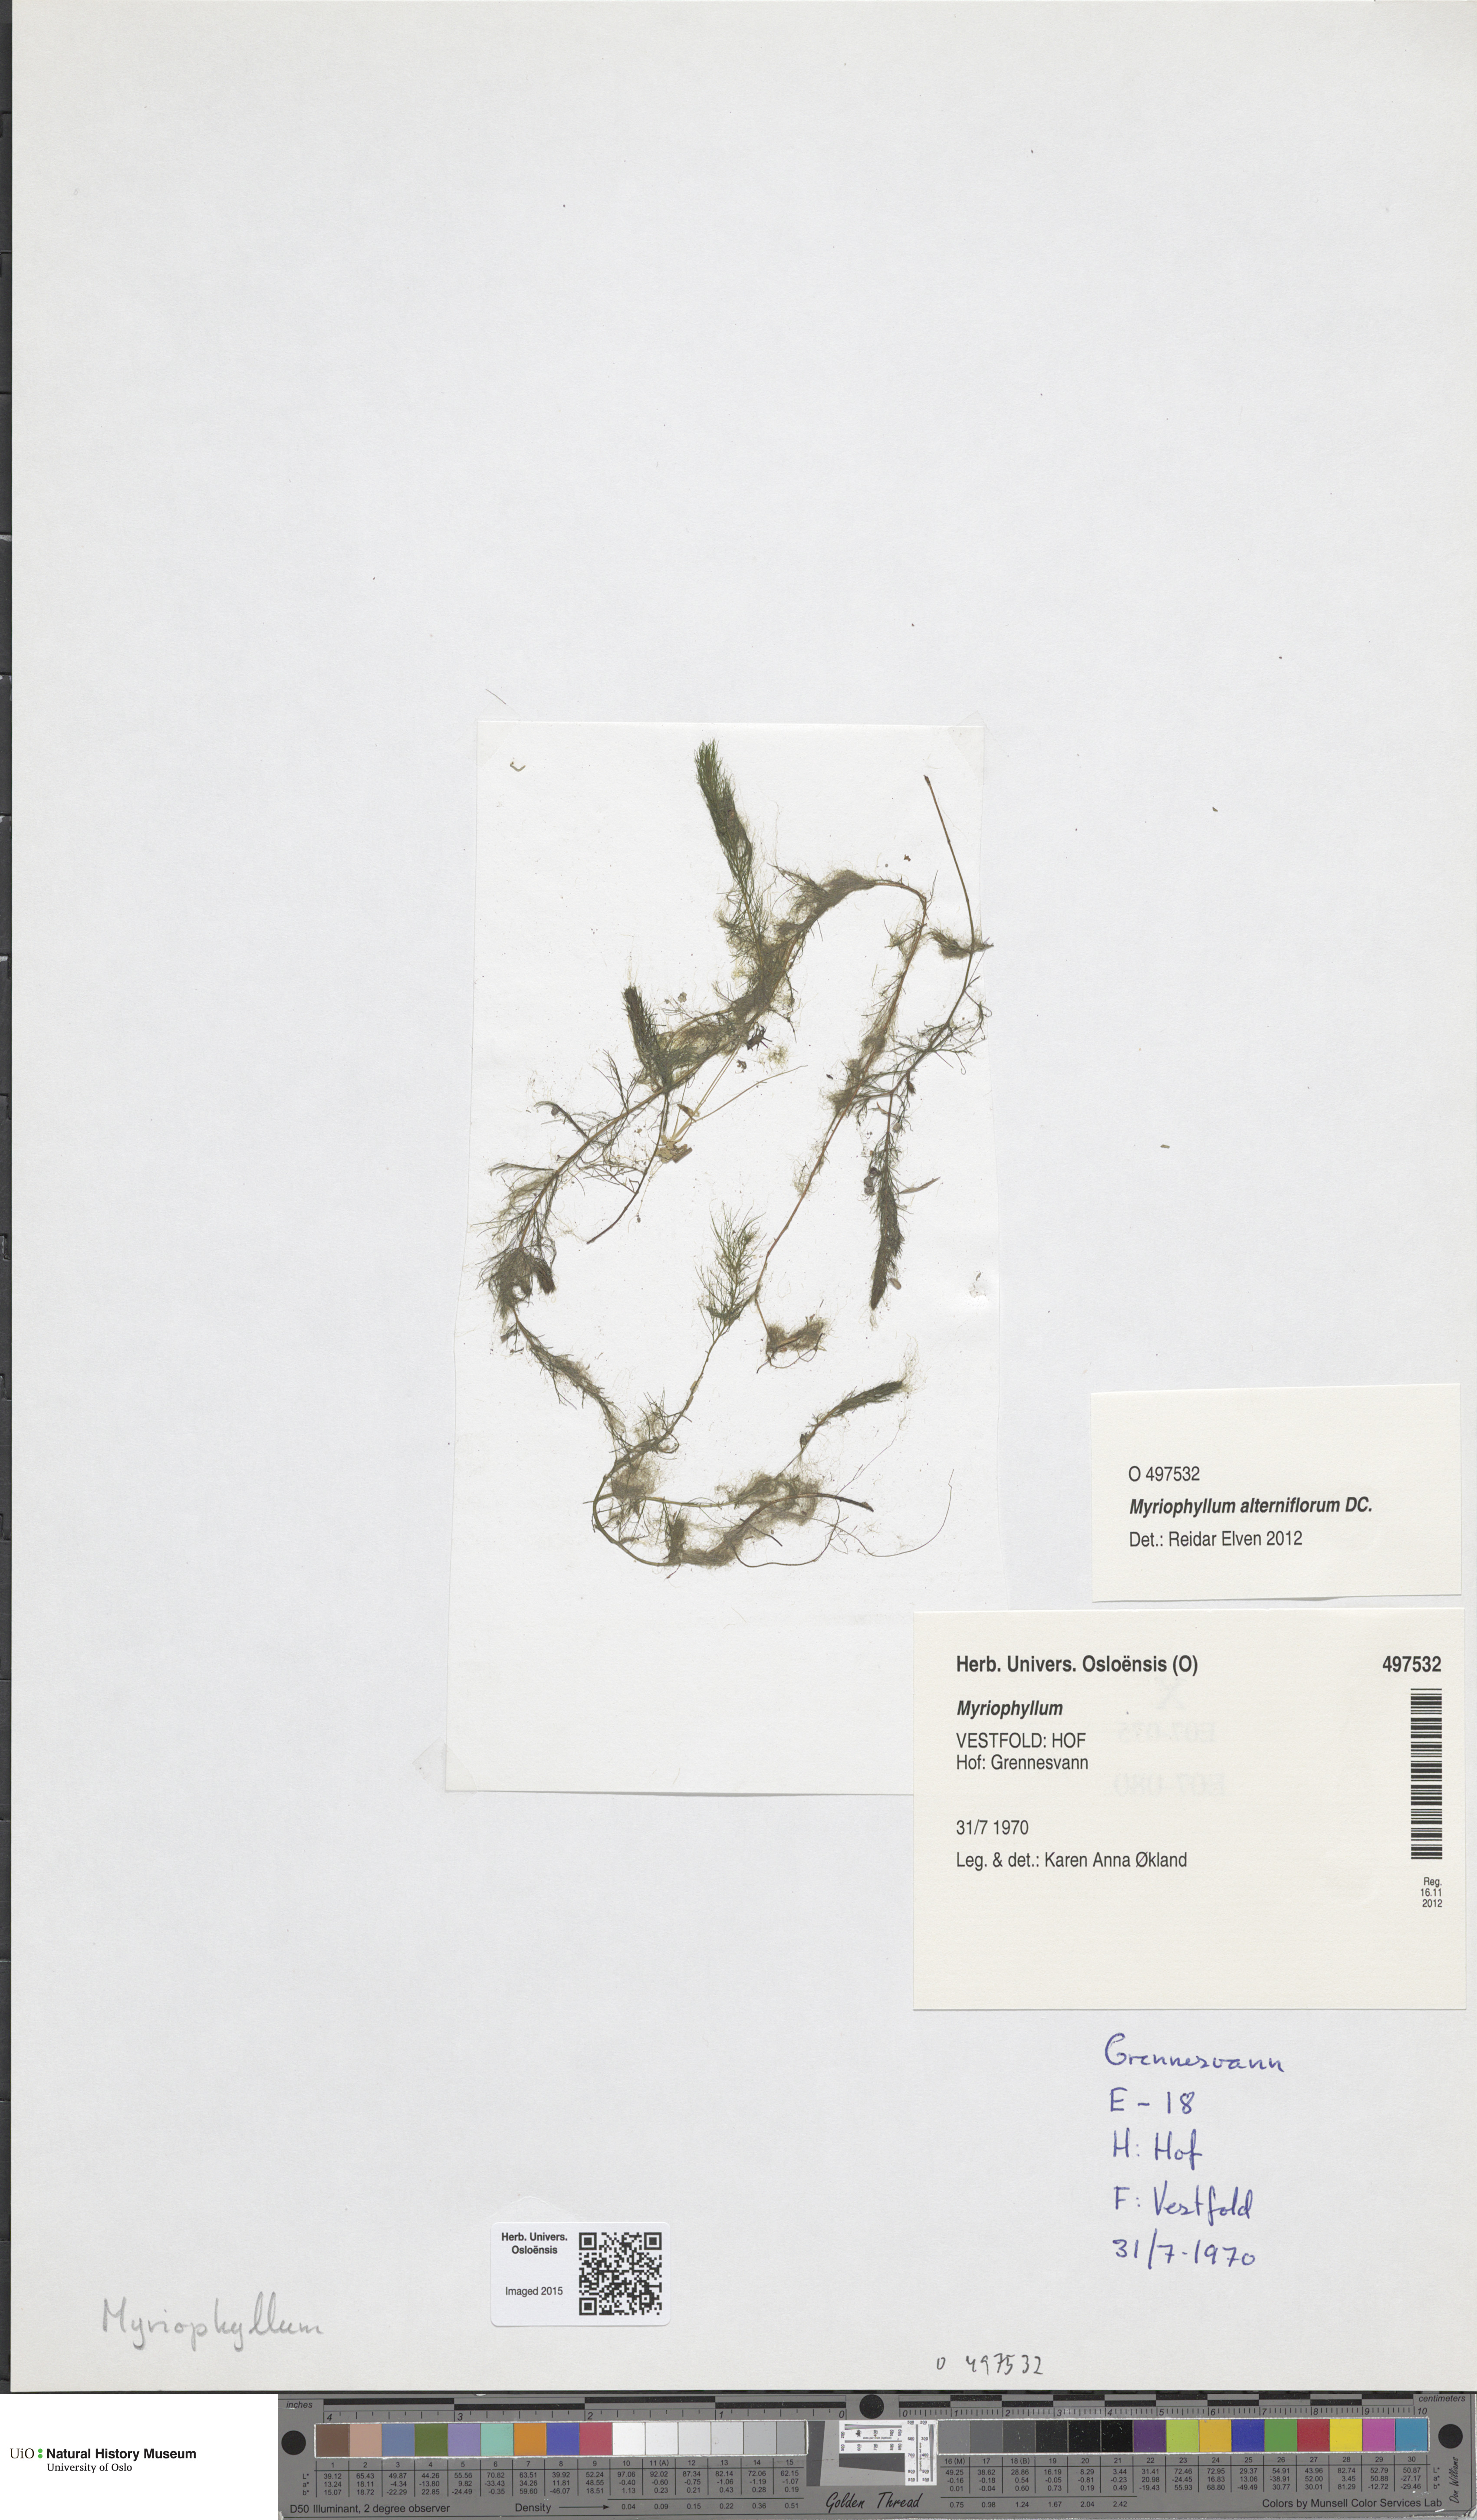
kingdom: Plantae
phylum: Tracheophyta
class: Magnoliopsida
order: Saxifragales
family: Haloragaceae
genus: Myriophyllum
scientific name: Myriophyllum
